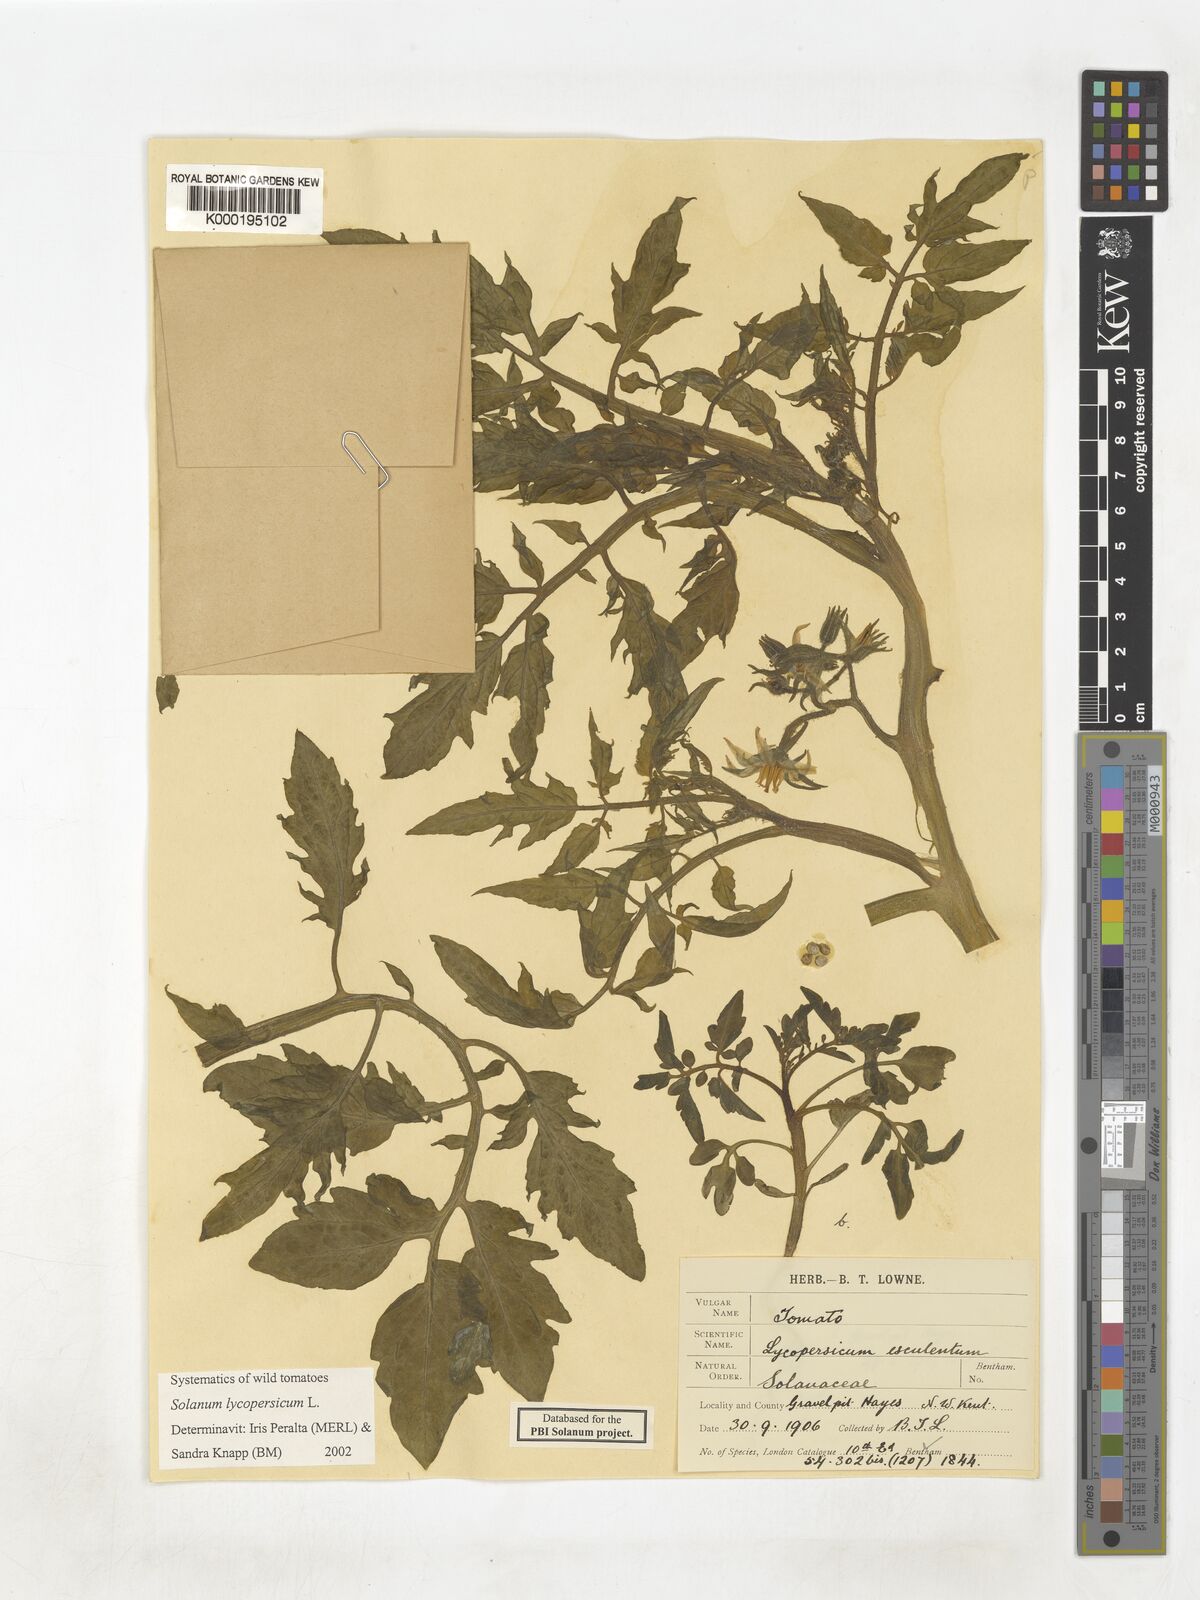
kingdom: Plantae
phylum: Tracheophyta
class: Magnoliopsida
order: Solanales
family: Solanaceae
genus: Solanum
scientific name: Solanum lycopersicum
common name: Garden tomato
